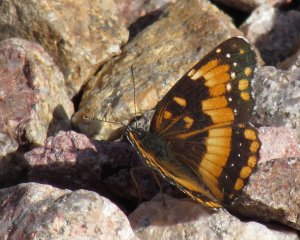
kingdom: Animalia
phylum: Arthropoda
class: Insecta
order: Lepidoptera
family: Nymphalidae
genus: Chlosyne
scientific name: Chlosyne californica
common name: California Patch
